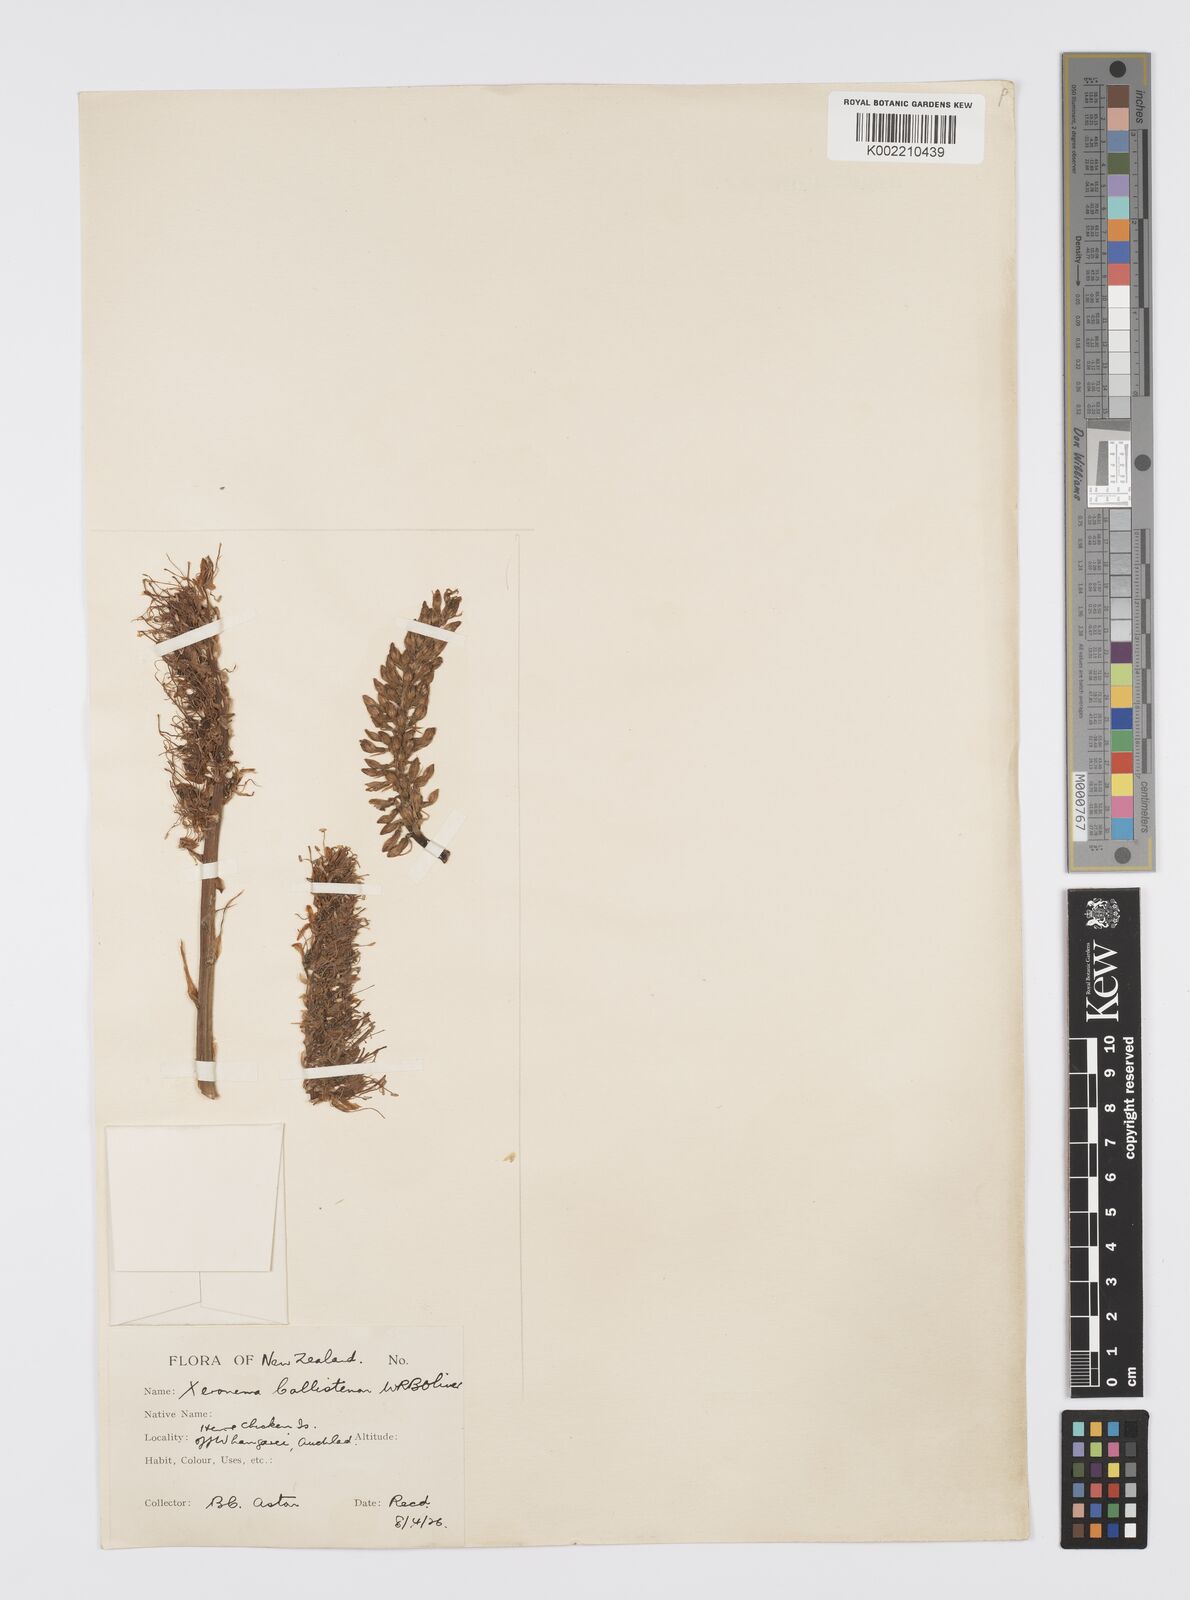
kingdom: Plantae
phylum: Tracheophyta
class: Liliopsida
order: Asparagales
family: Xeronemataceae
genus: Xeronema
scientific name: Xeronema callistemon
